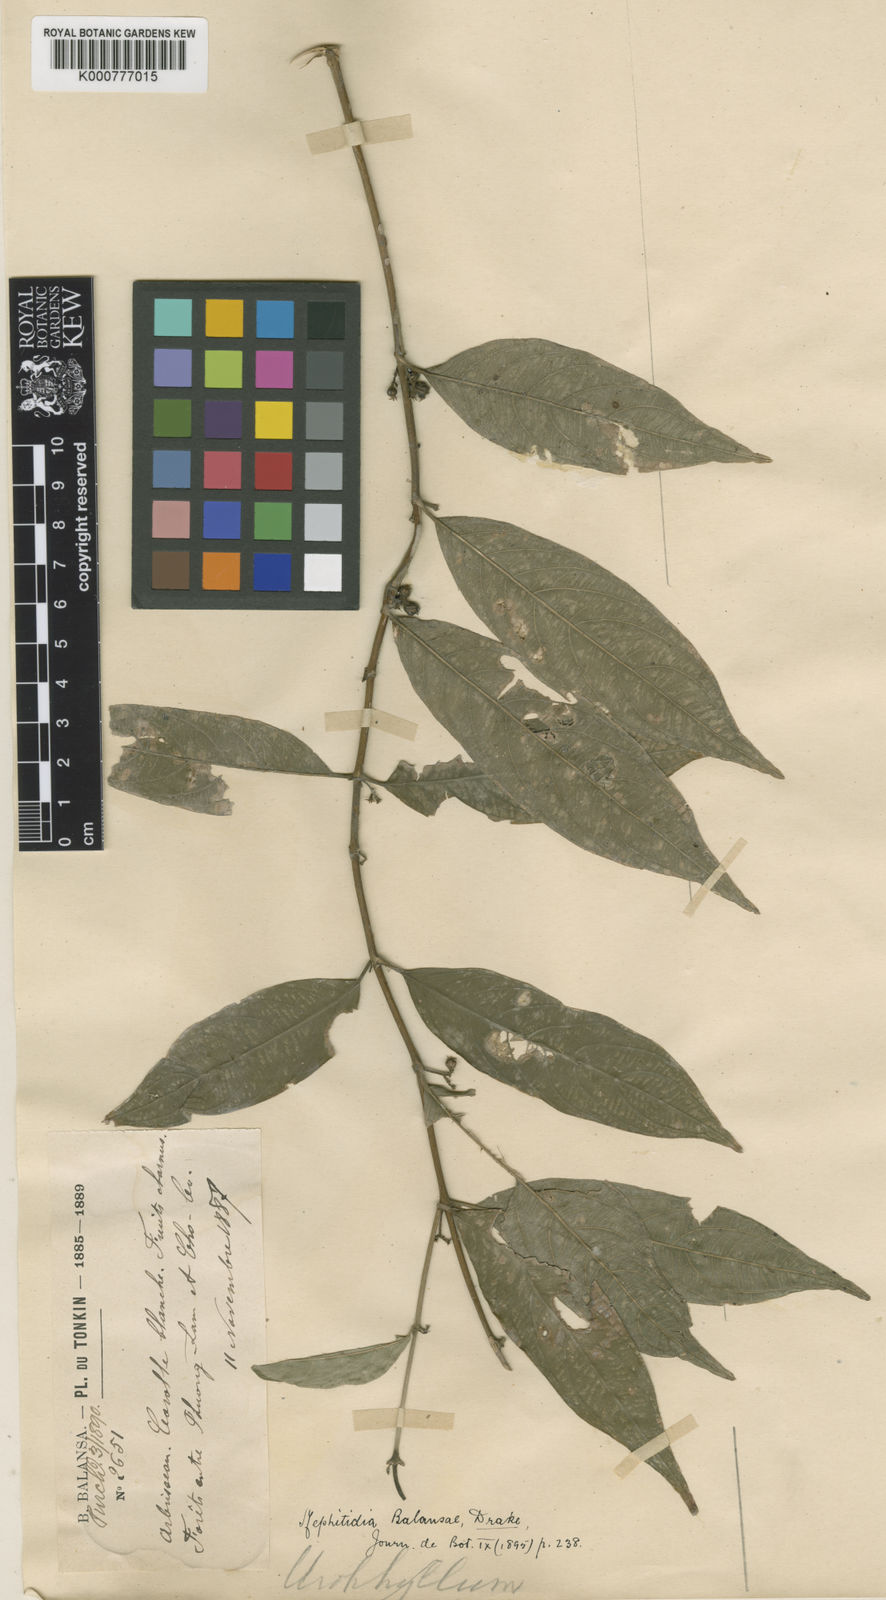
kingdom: Plantae
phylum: Tracheophyta
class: Magnoliopsida
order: Gentianales
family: Rubiaceae
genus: Lasianthus
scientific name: Lasianthus micranthus
